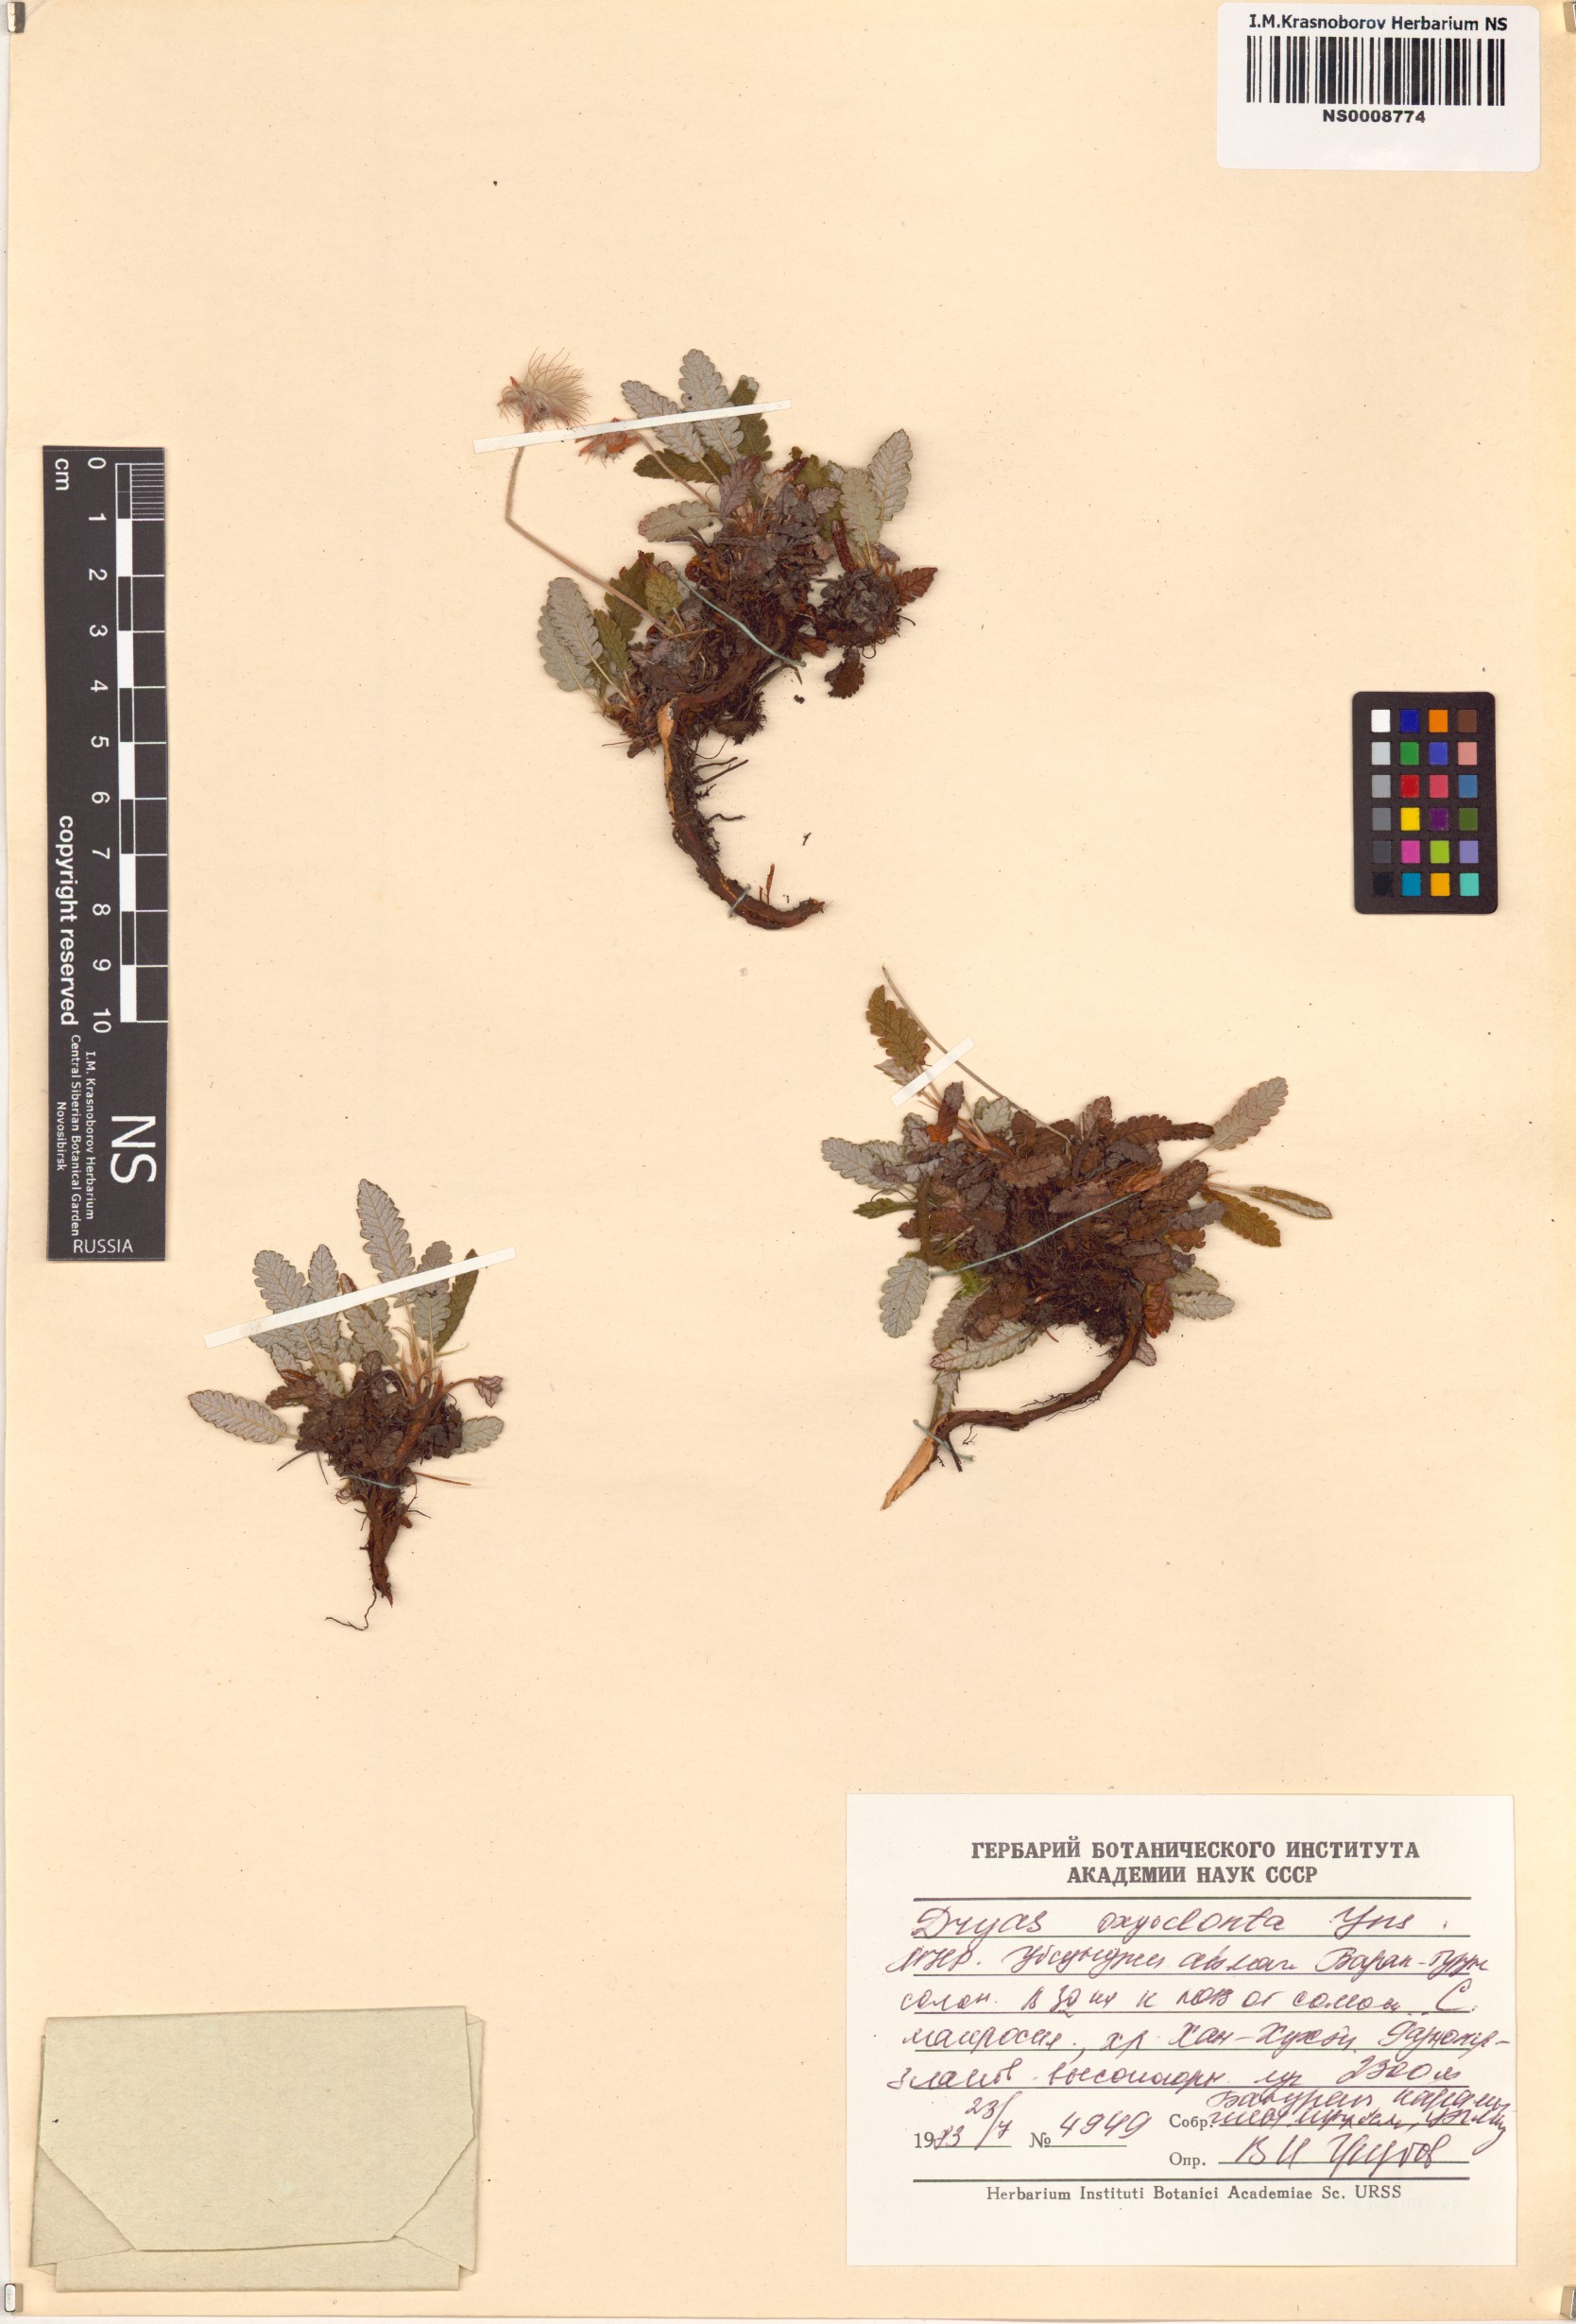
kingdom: Plantae
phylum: Tracheophyta
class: Magnoliopsida
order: Rosales
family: Rosaceae
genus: Dryas
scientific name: Dryas octopetala
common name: Eight-petal mountain-avens
